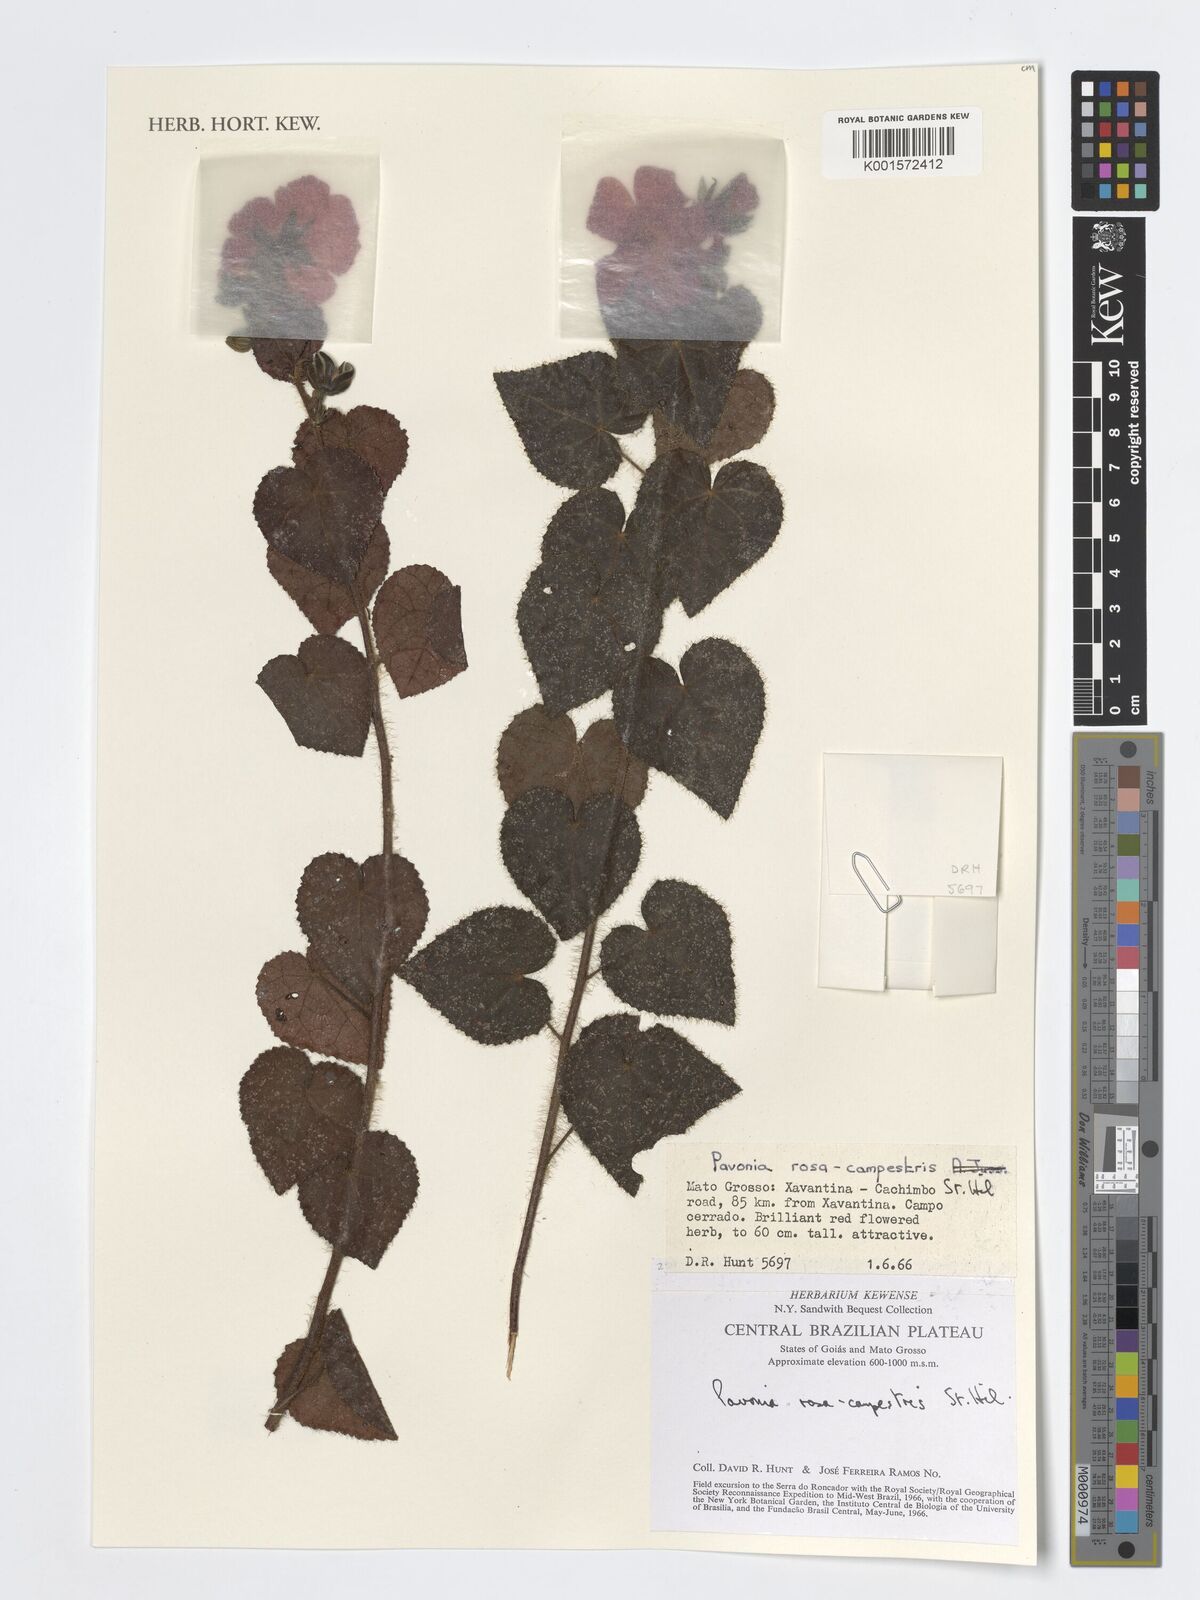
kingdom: Plantae
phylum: Tracheophyta
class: Magnoliopsida
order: Malvales
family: Malvaceae
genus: Pavonia
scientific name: Pavonia rosa-campestris
